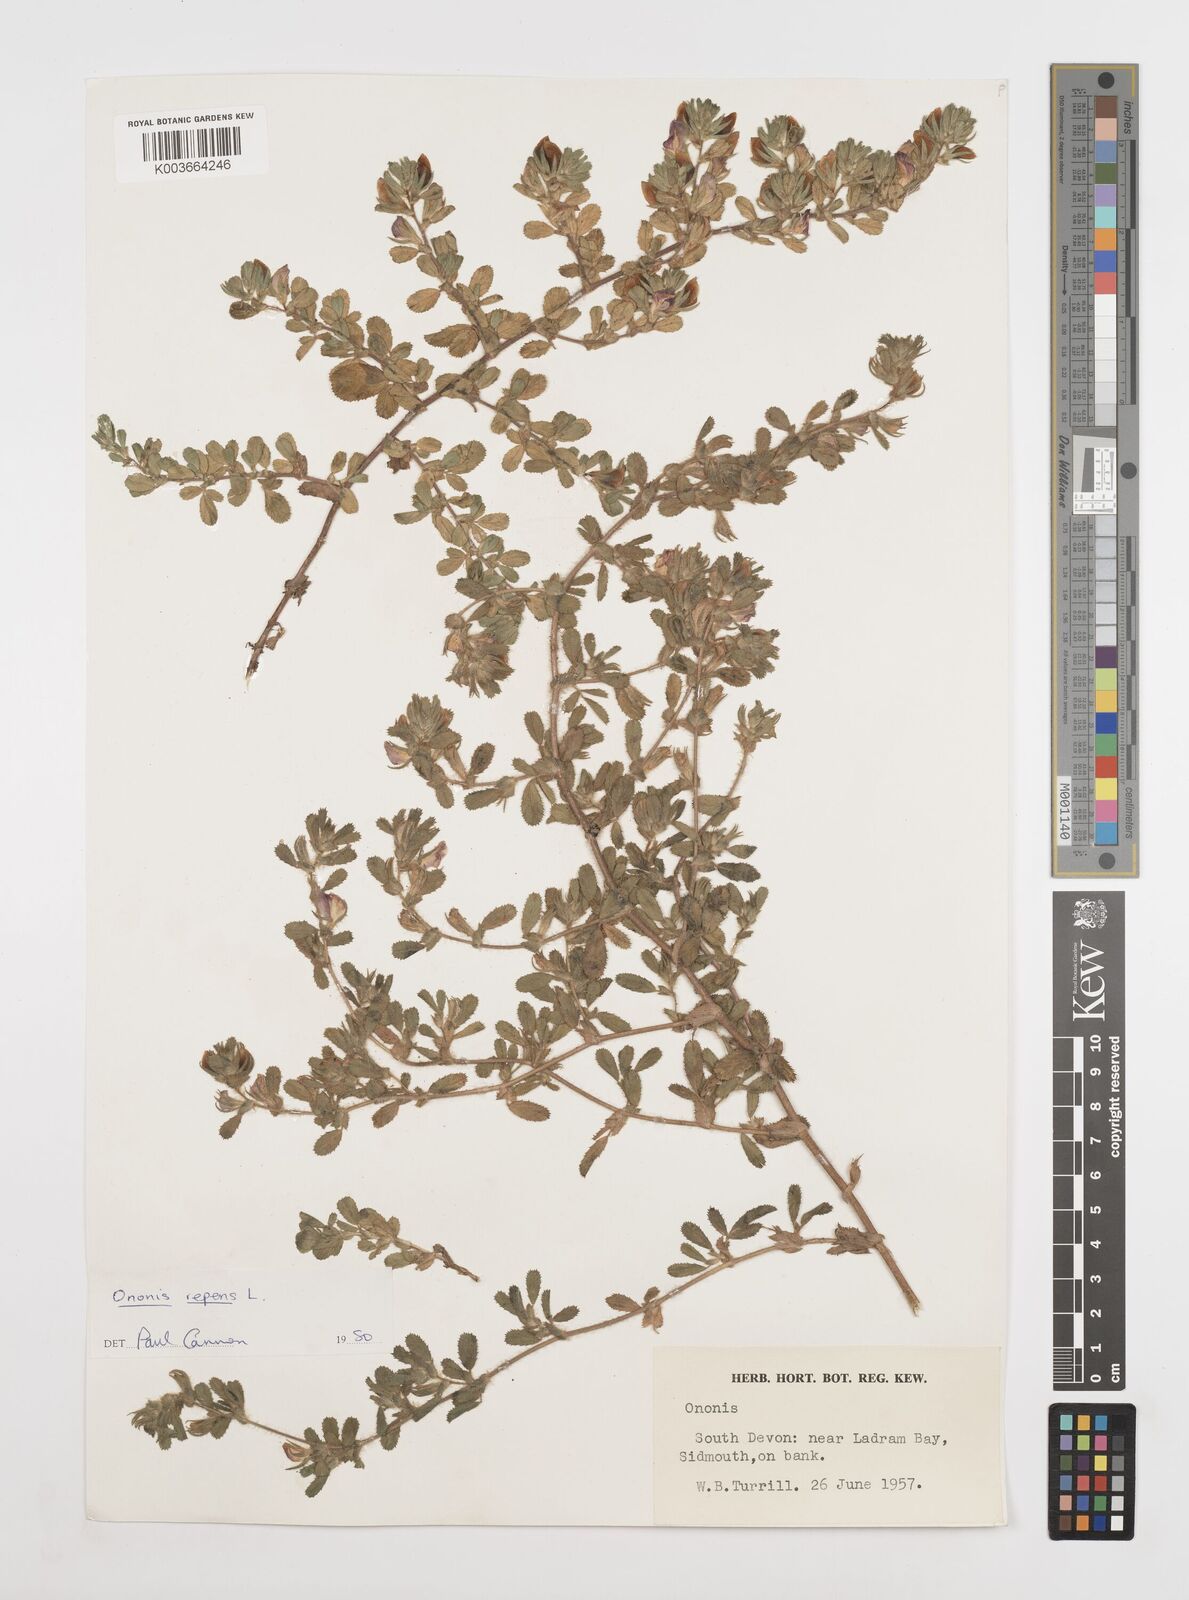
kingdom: Plantae
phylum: Tracheophyta
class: Magnoliopsida
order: Fabales
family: Fabaceae
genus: Ononis
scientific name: Ononis spinosa
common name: Spiny restharrow
